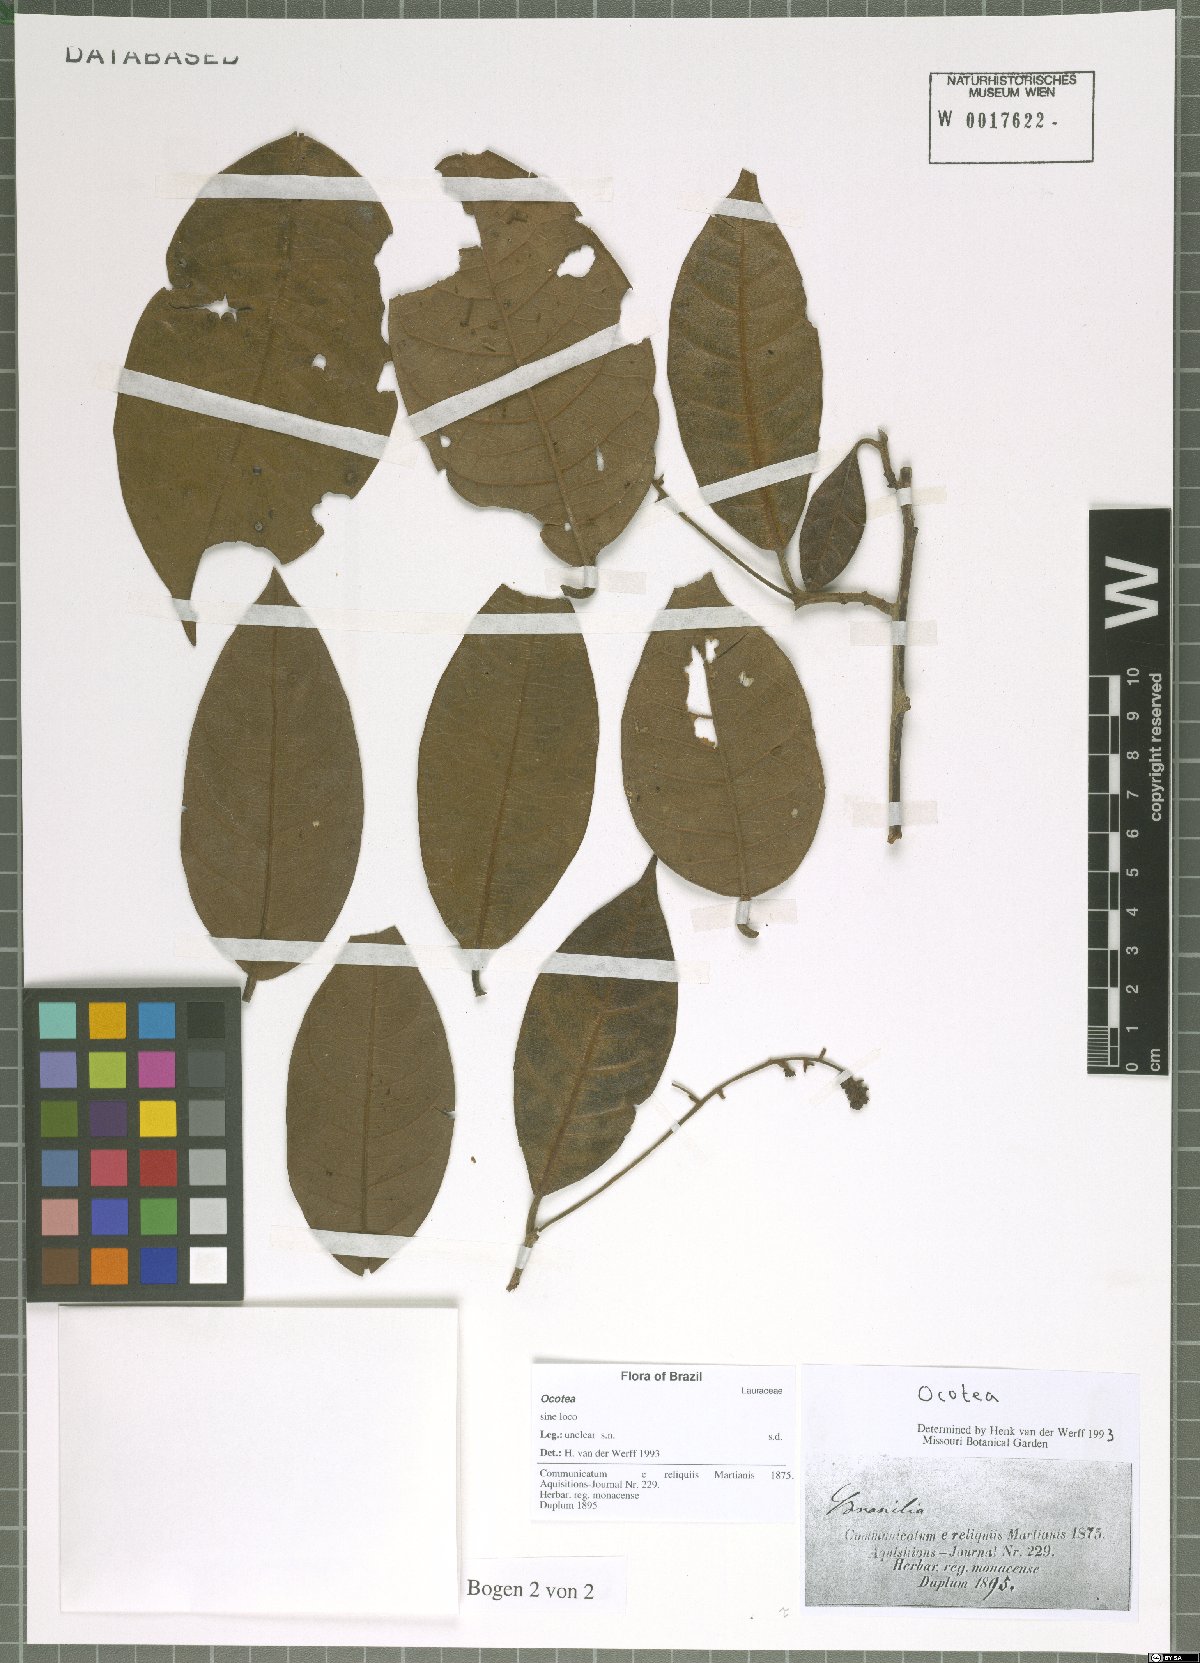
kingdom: Plantae
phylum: Tracheophyta
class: Magnoliopsida
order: Laurales
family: Lauraceae
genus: Ocotea
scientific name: Ocotea
